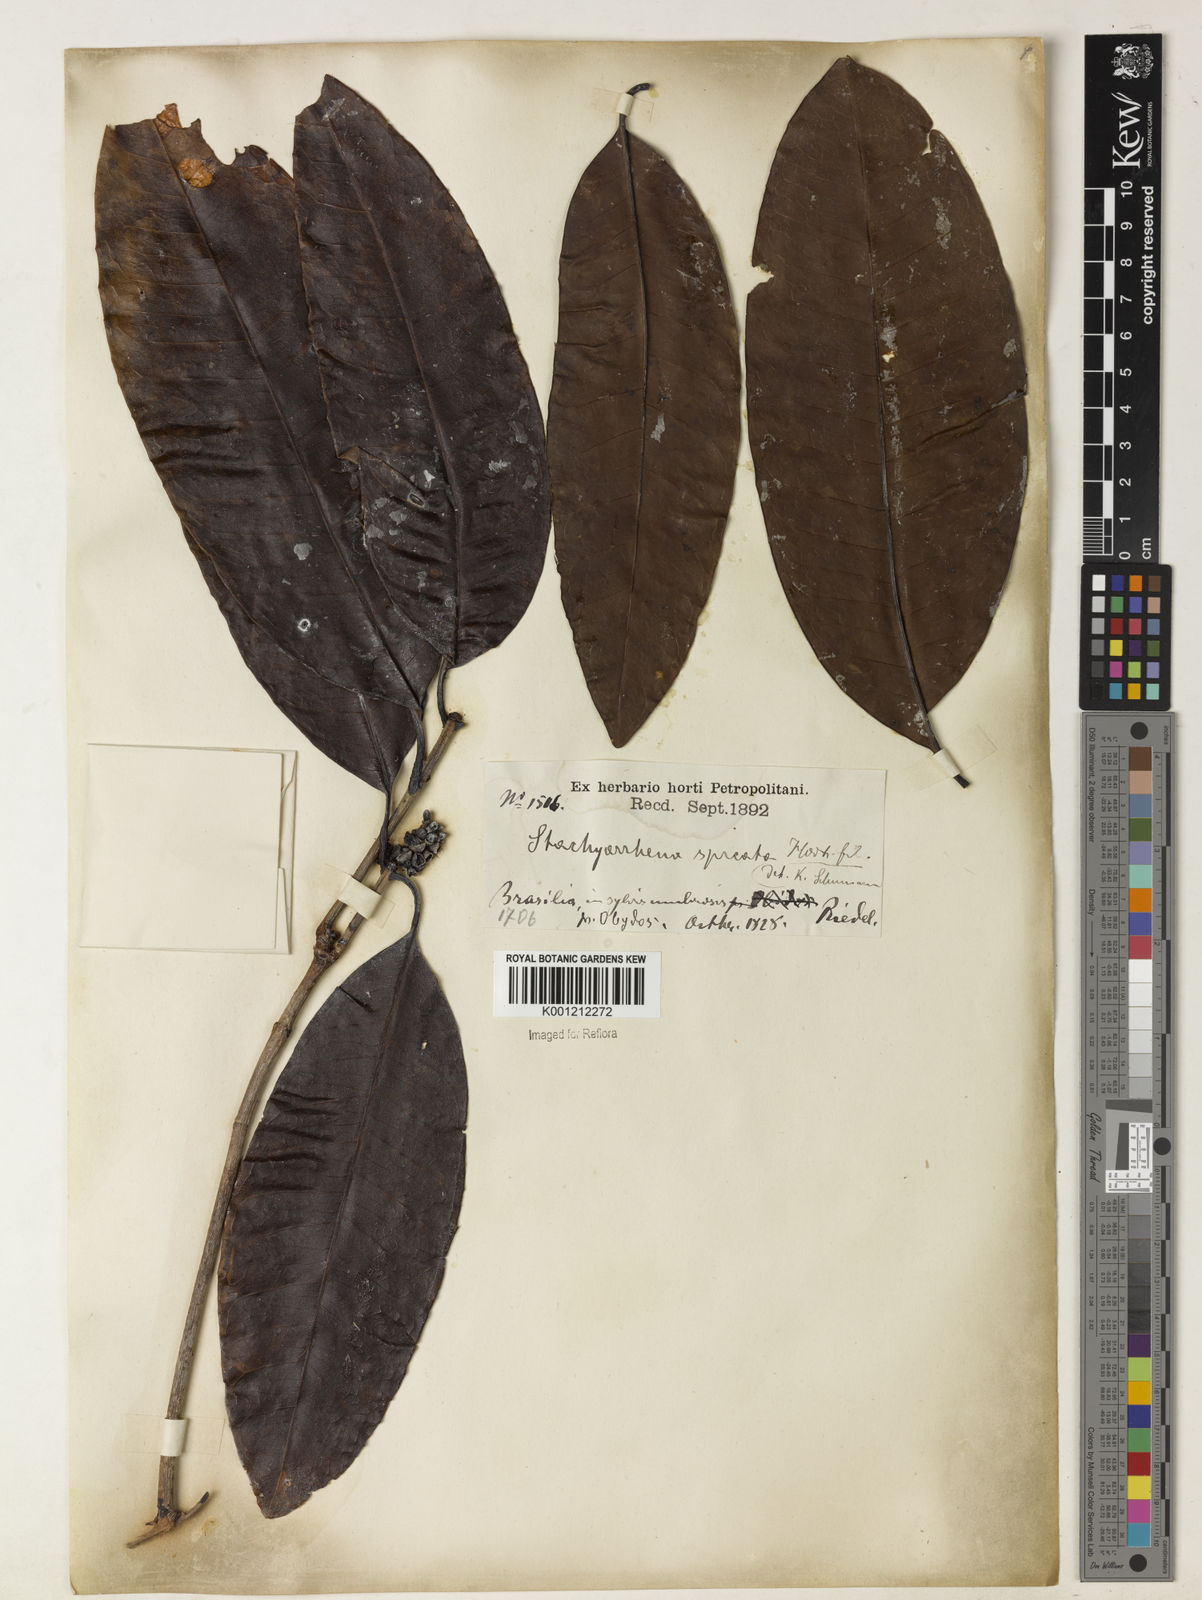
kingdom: Plantae
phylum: Tracheophyta
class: Magnoliopsida
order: Gentianales
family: Rubiaceae
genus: Stachyarrhena
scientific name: Stachyarrhena spicata
